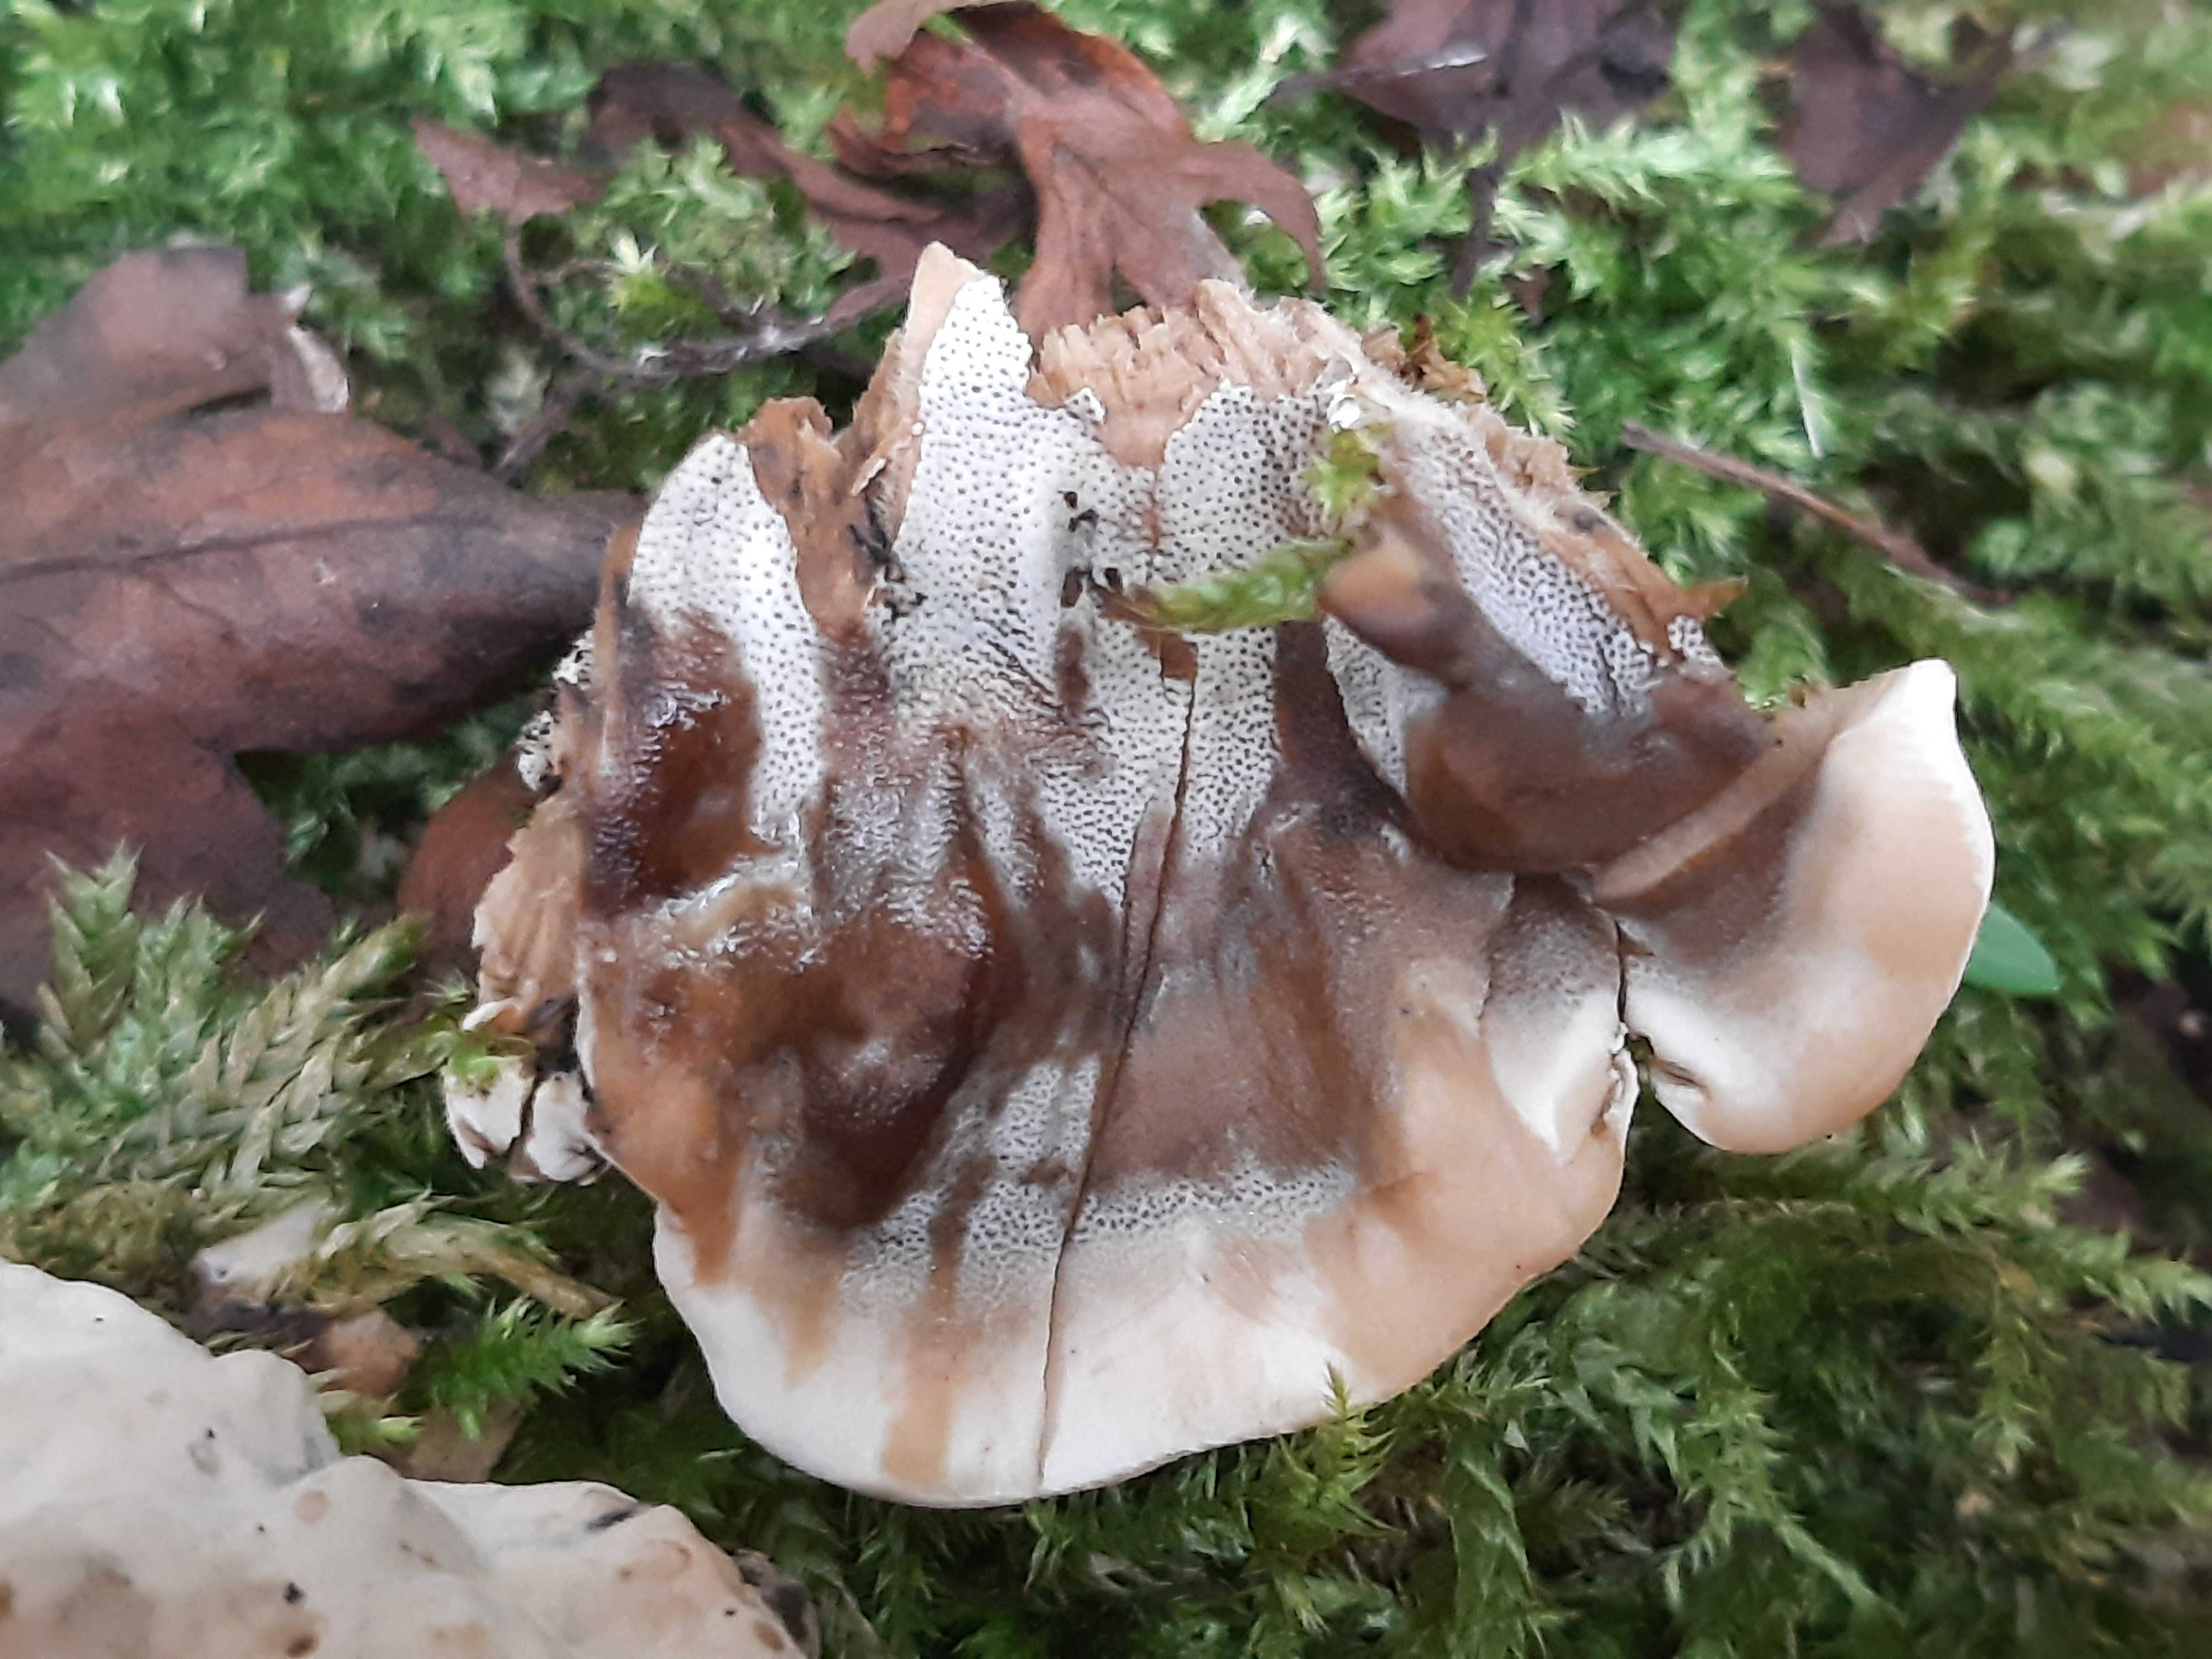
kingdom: Fungi
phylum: Basidiomycota
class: Agaricomycetes
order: Polyporales
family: Phanerochaetaceae
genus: Bjerkandera
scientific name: Bjerkandera adusta
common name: sveden sodporesvamp
